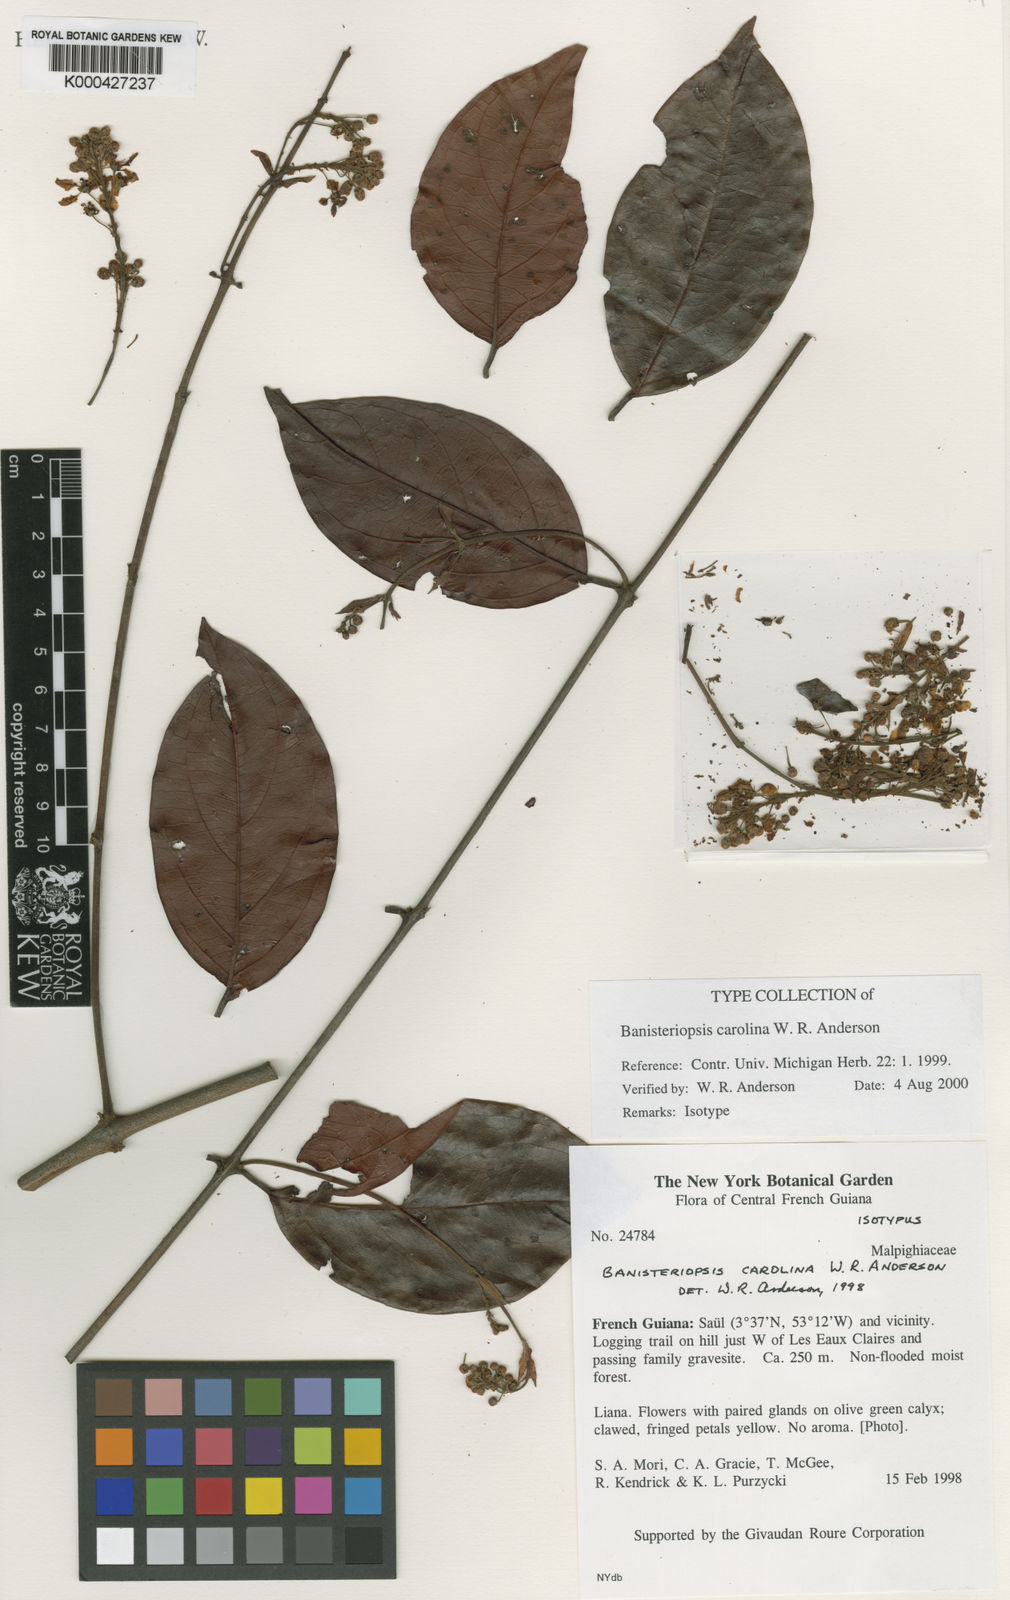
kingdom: Plantae
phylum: Tracheophyta
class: Magnoliopsida
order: Malpighiales
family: Malpighiaceae
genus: Banisteriopsis
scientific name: Banisteriopsis carolina
